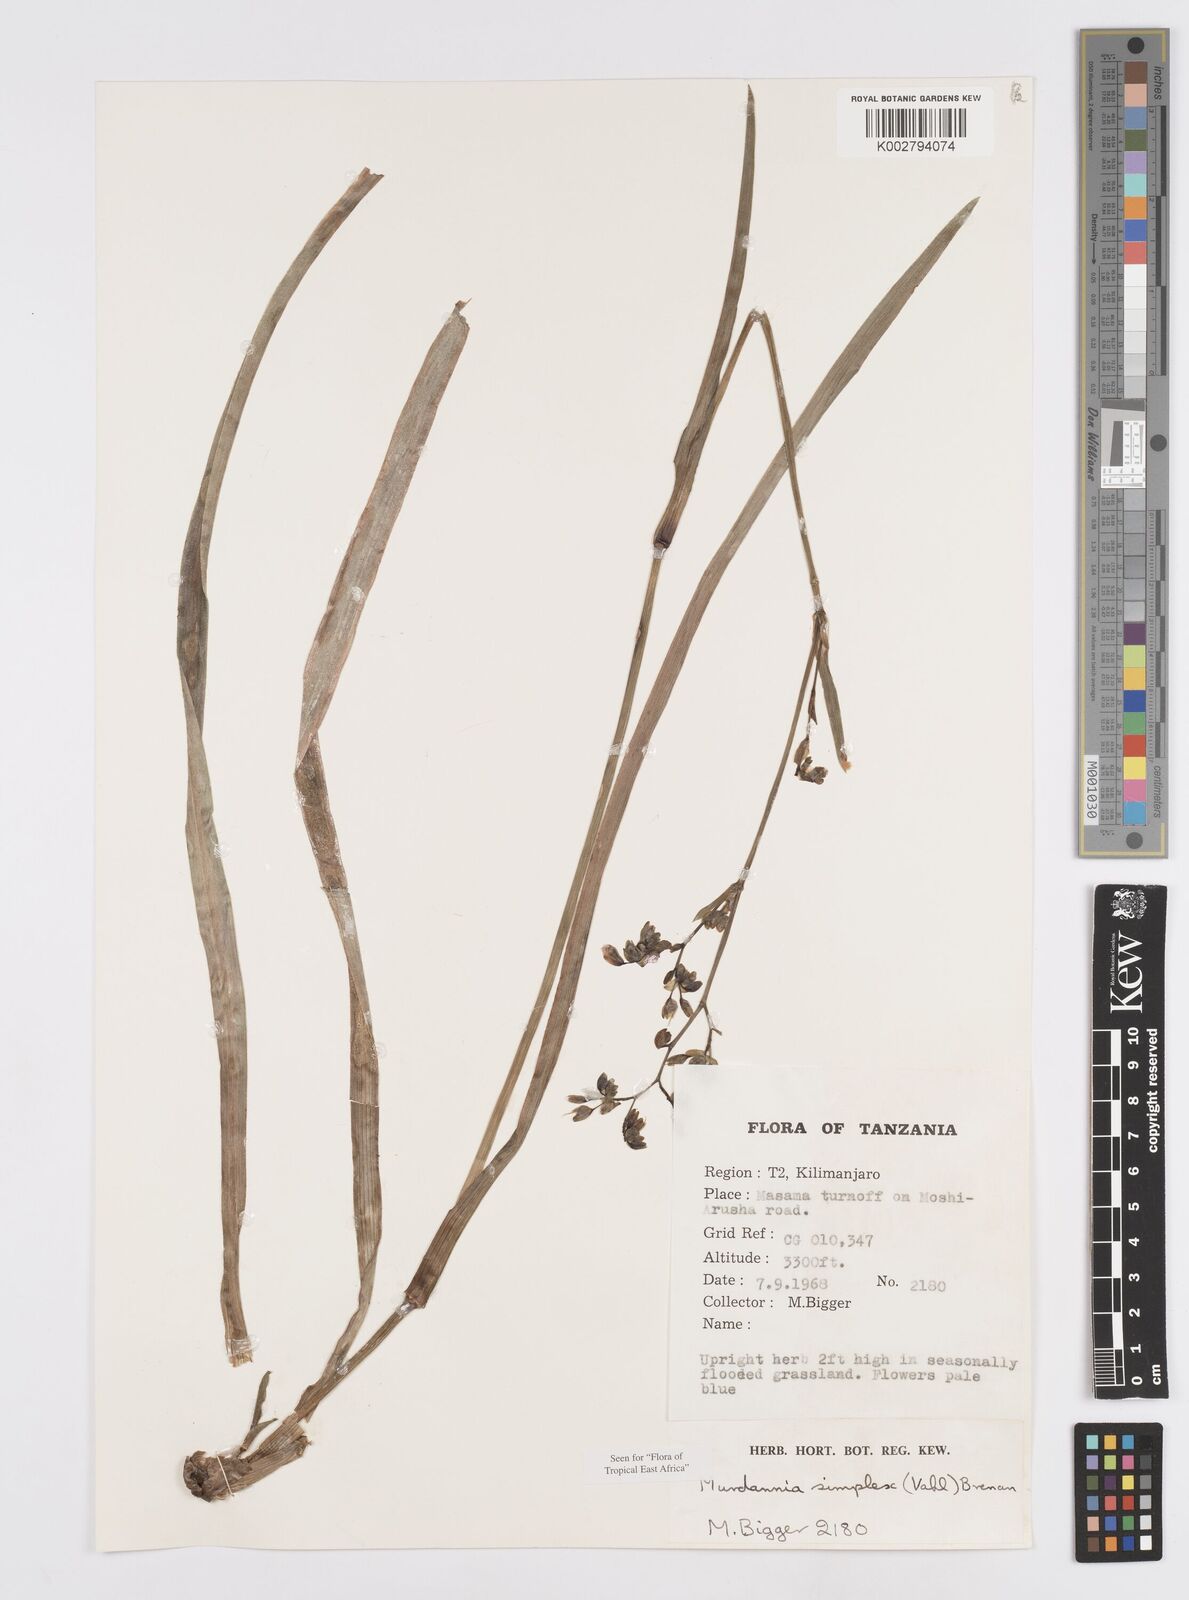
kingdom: Plantae
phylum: Tracheophyta
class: Liliopsida
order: Commelinales
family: Commelinaceae
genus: Murdannia
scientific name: Murdannia simplex
